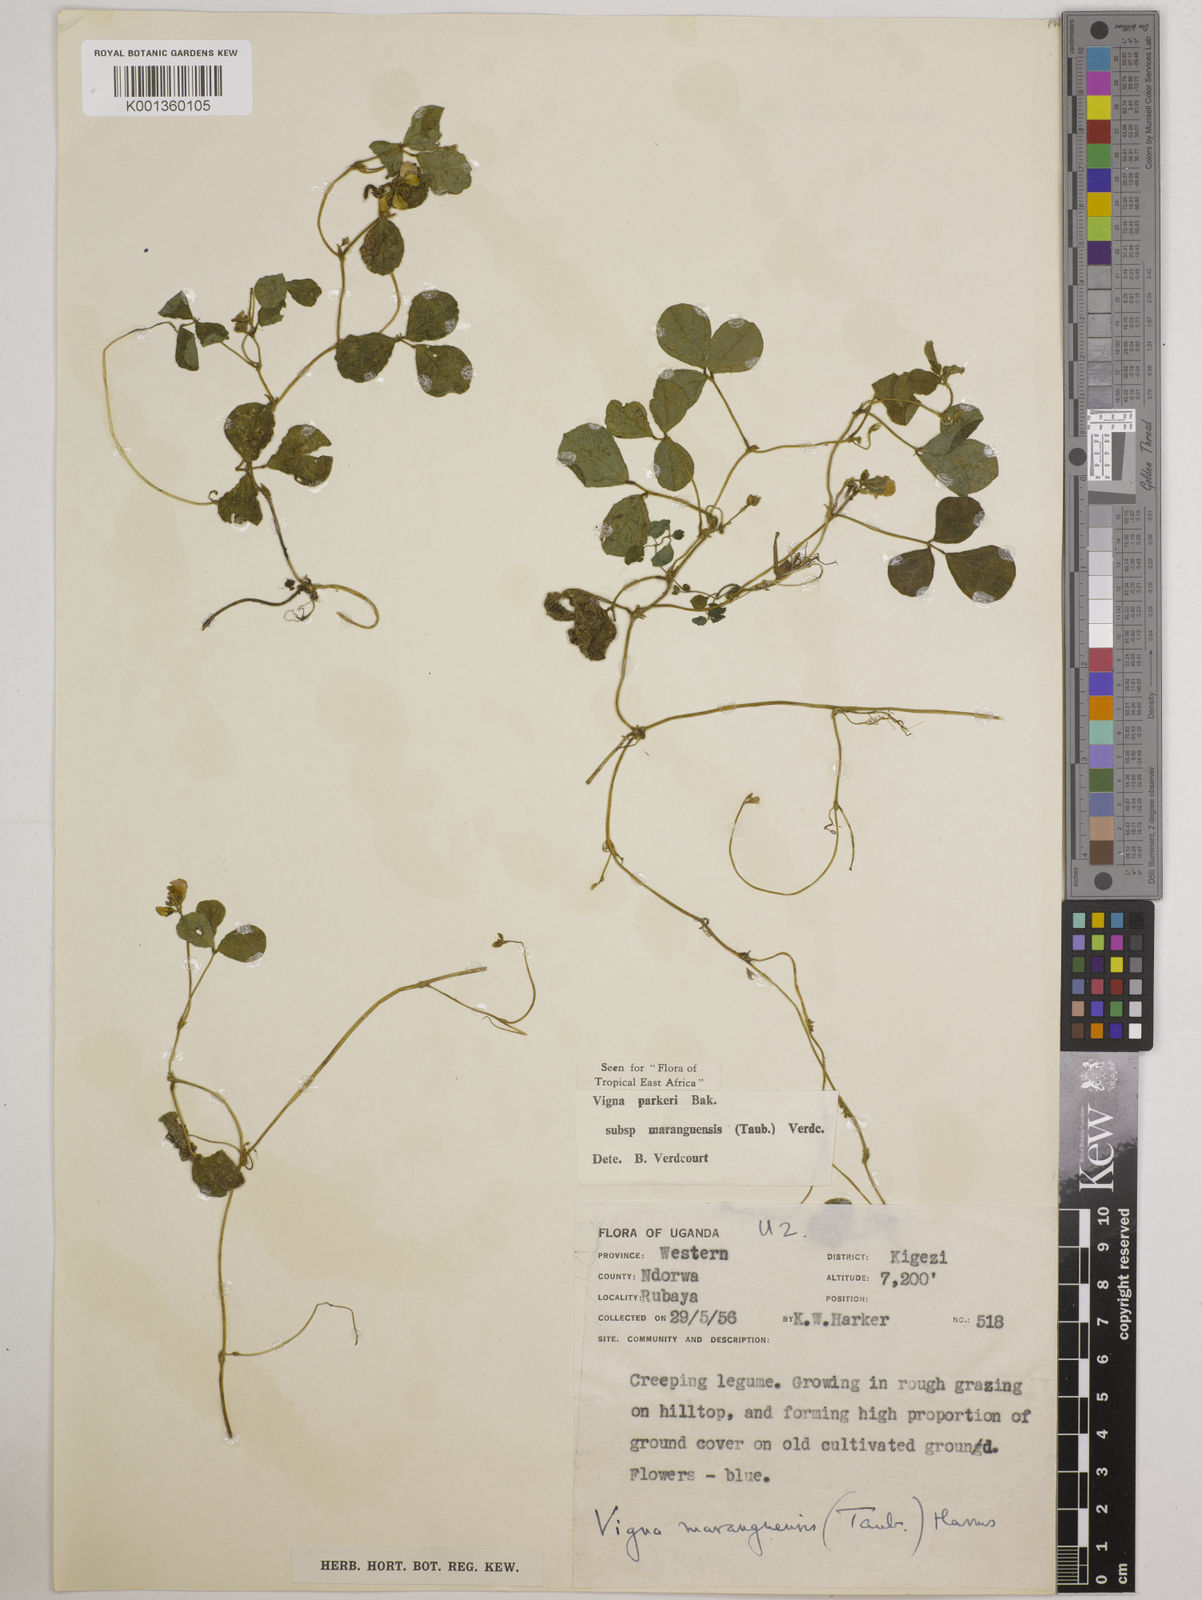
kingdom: Plantae
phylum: Tracheophyta
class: Magnoliopsida
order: Fabales
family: Fabaceae
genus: Vigna
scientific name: Vigna parkeri
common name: Creeping vigna
